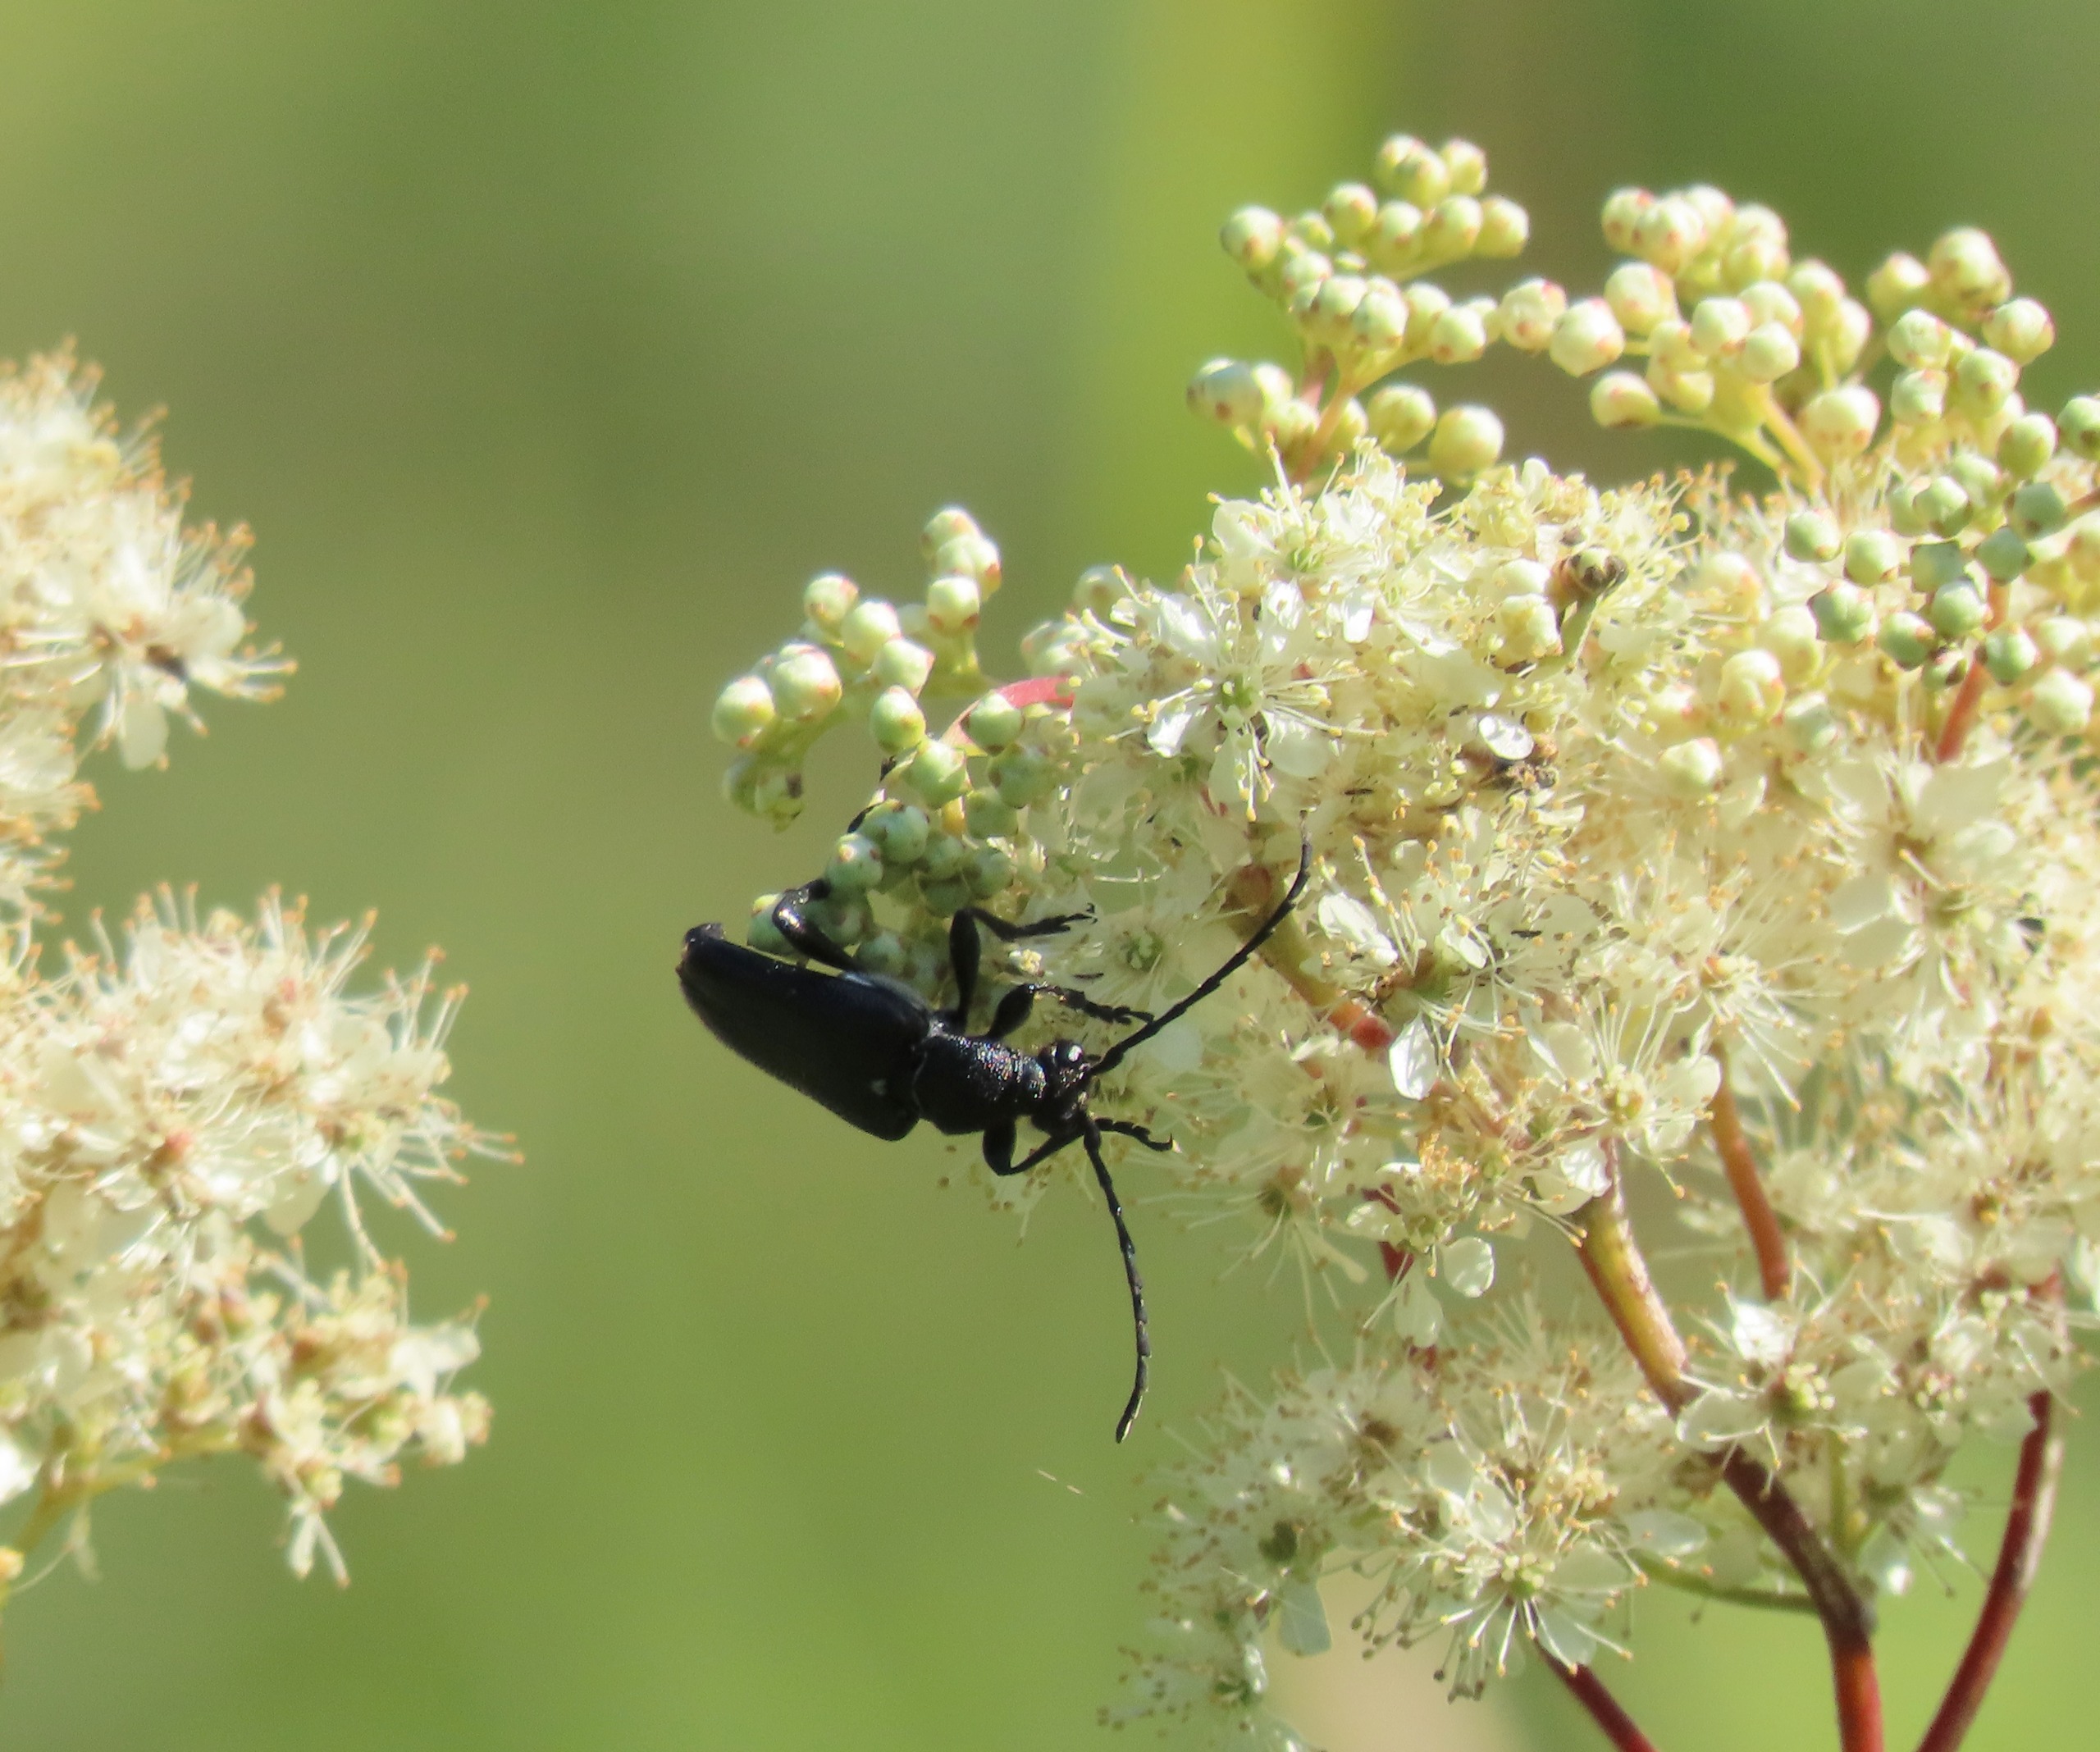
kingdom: Animalia
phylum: Arthropoda
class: Insecta
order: Coleoptera
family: Cerambycidae
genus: Stictoleptura
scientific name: Stictoleptura scutellata
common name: Sort blomsterbuk
